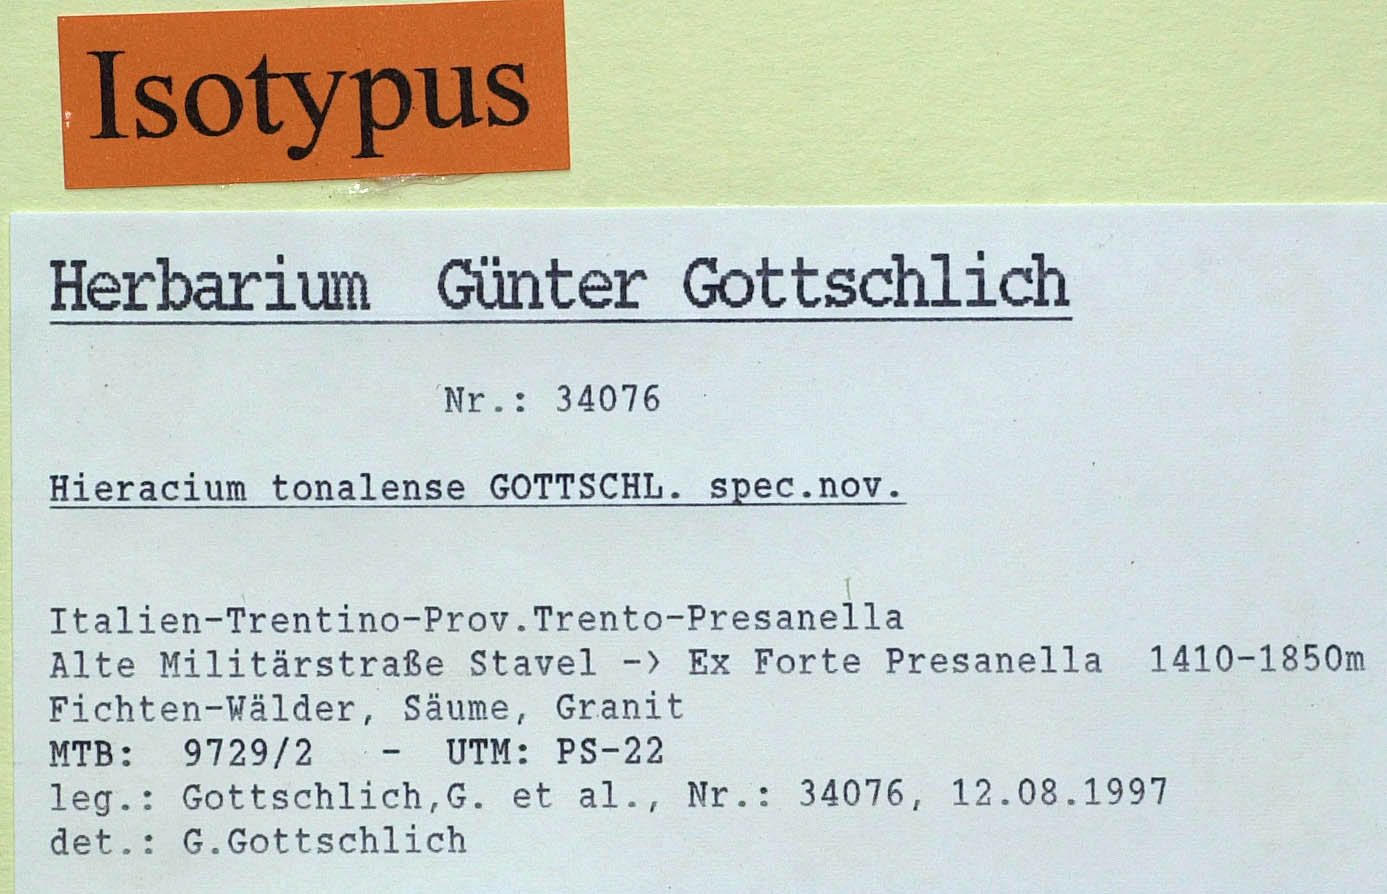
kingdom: Plantae
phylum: Tracheophyta
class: Magnoliopsida
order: Asterales
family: Asteraceae
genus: Hieracium
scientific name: Hieracium tonalense
